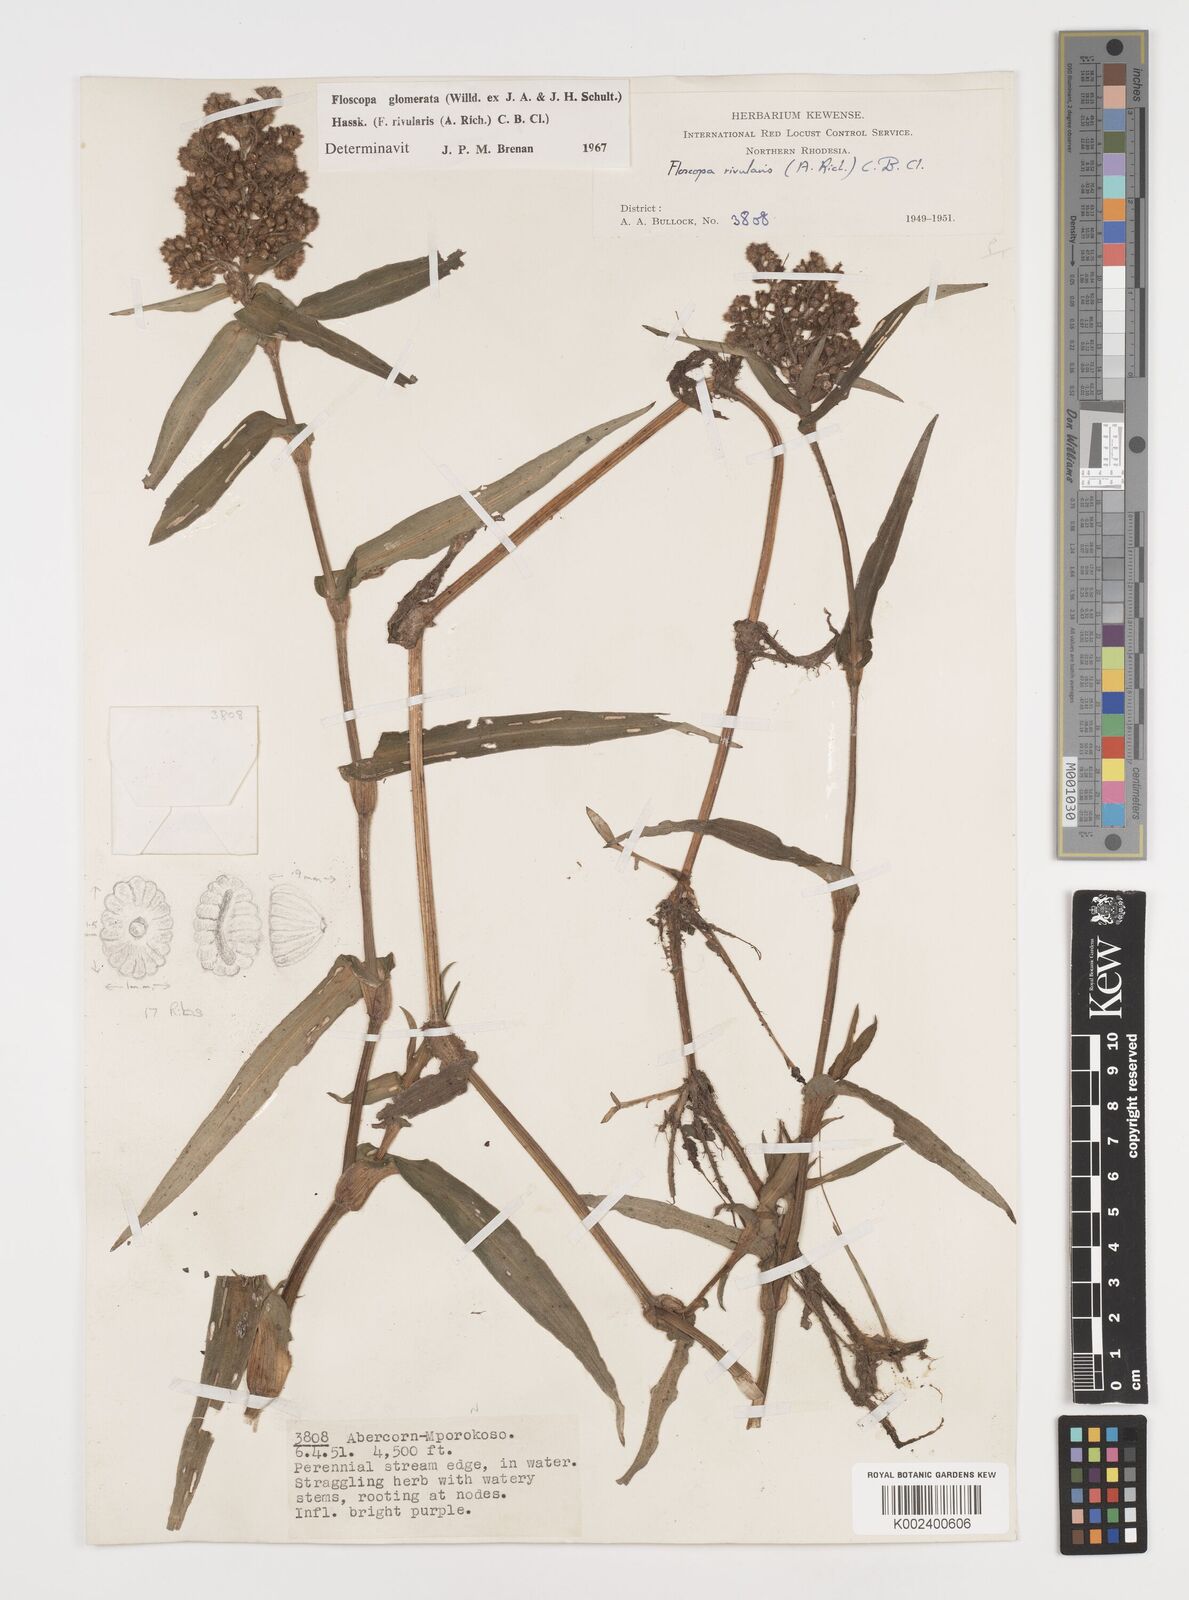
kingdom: Plantae
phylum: Tracheophyta
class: Liliopsida
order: Commelinales
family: Commelinaceae
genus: Floscopa
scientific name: Floscopa glomerata
